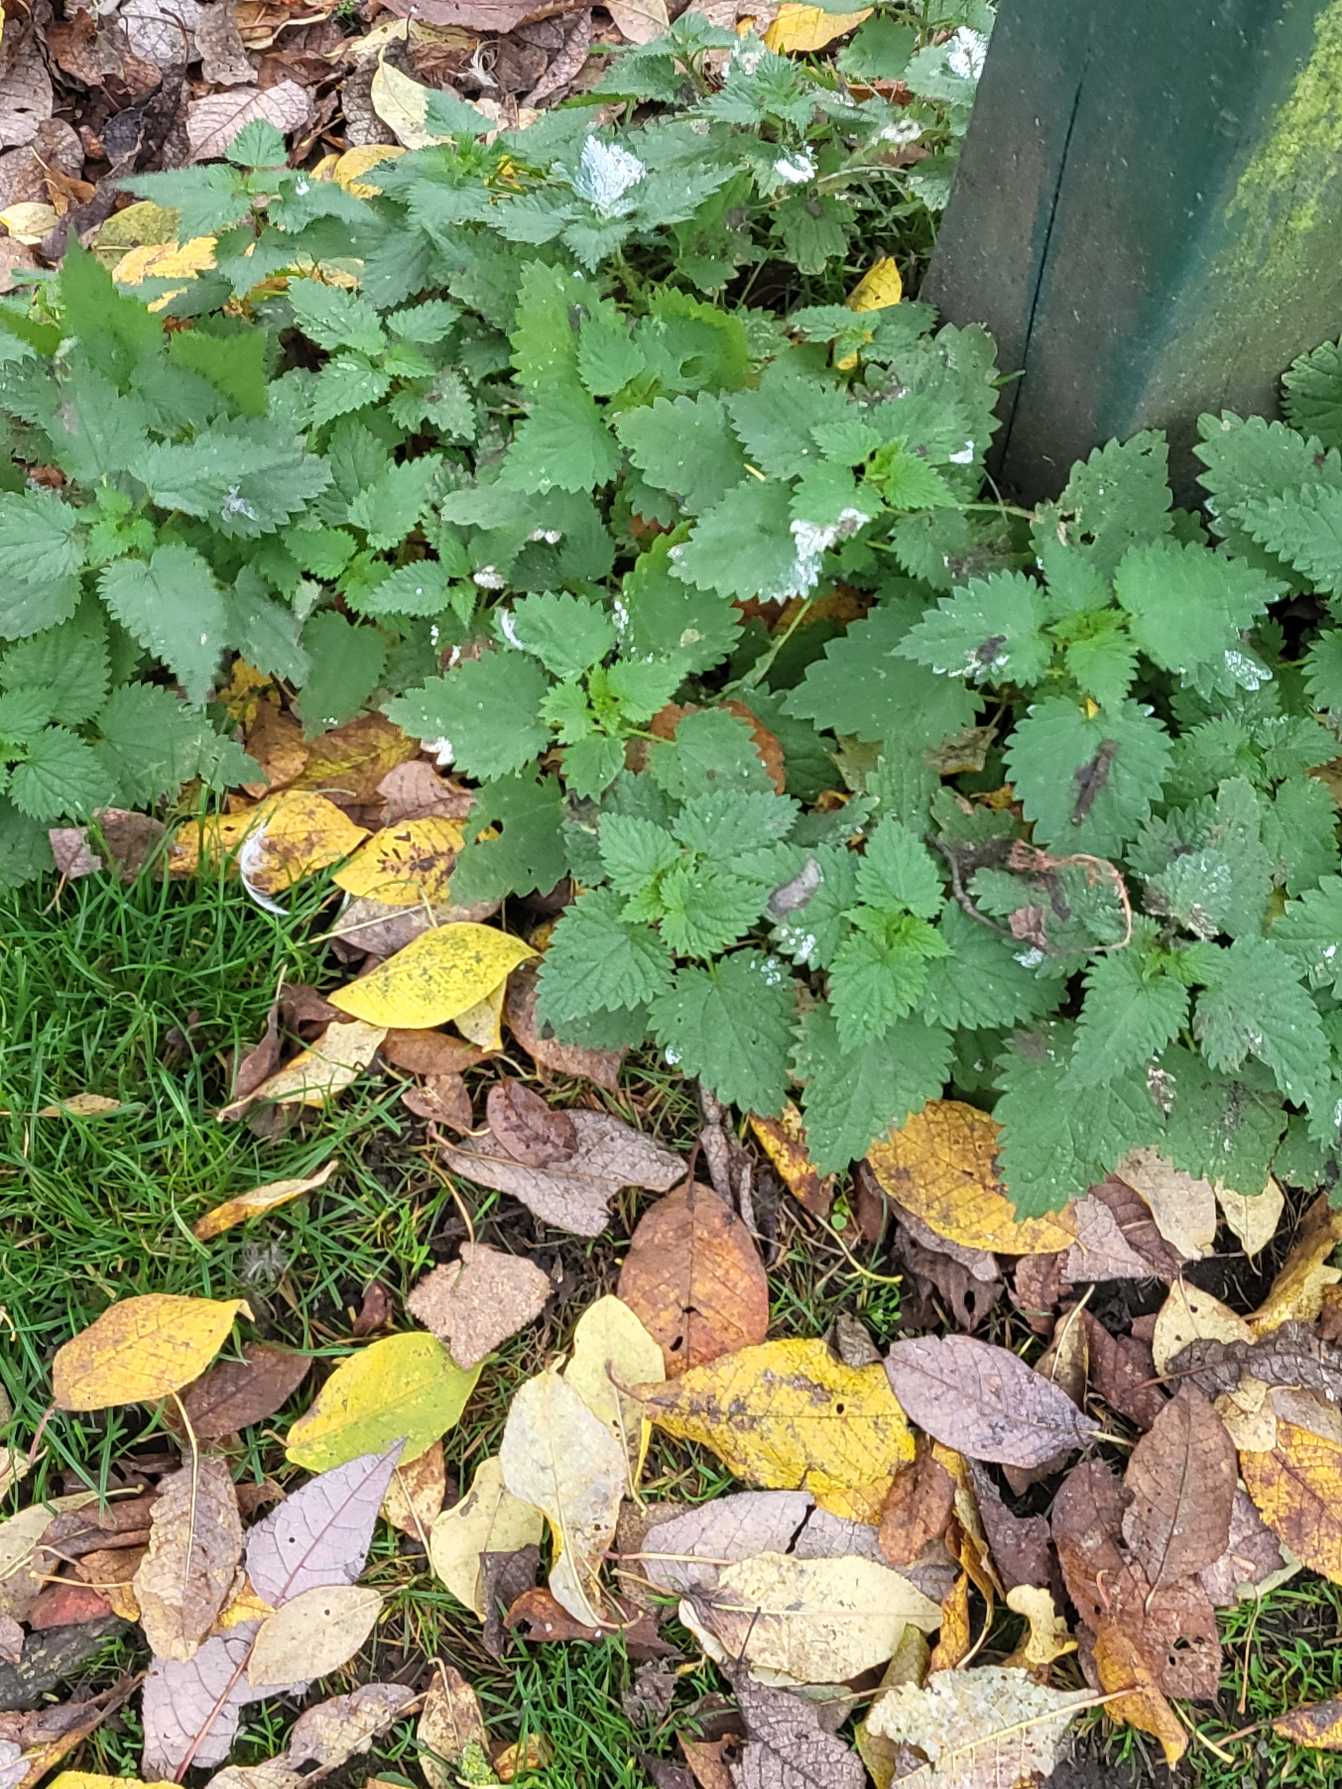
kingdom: Plantae
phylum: Tracheophyta
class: Magnoliopsida
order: Rosales
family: Urticaceae
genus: Urtica
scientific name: Urtica dioica
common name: Stor nælde
